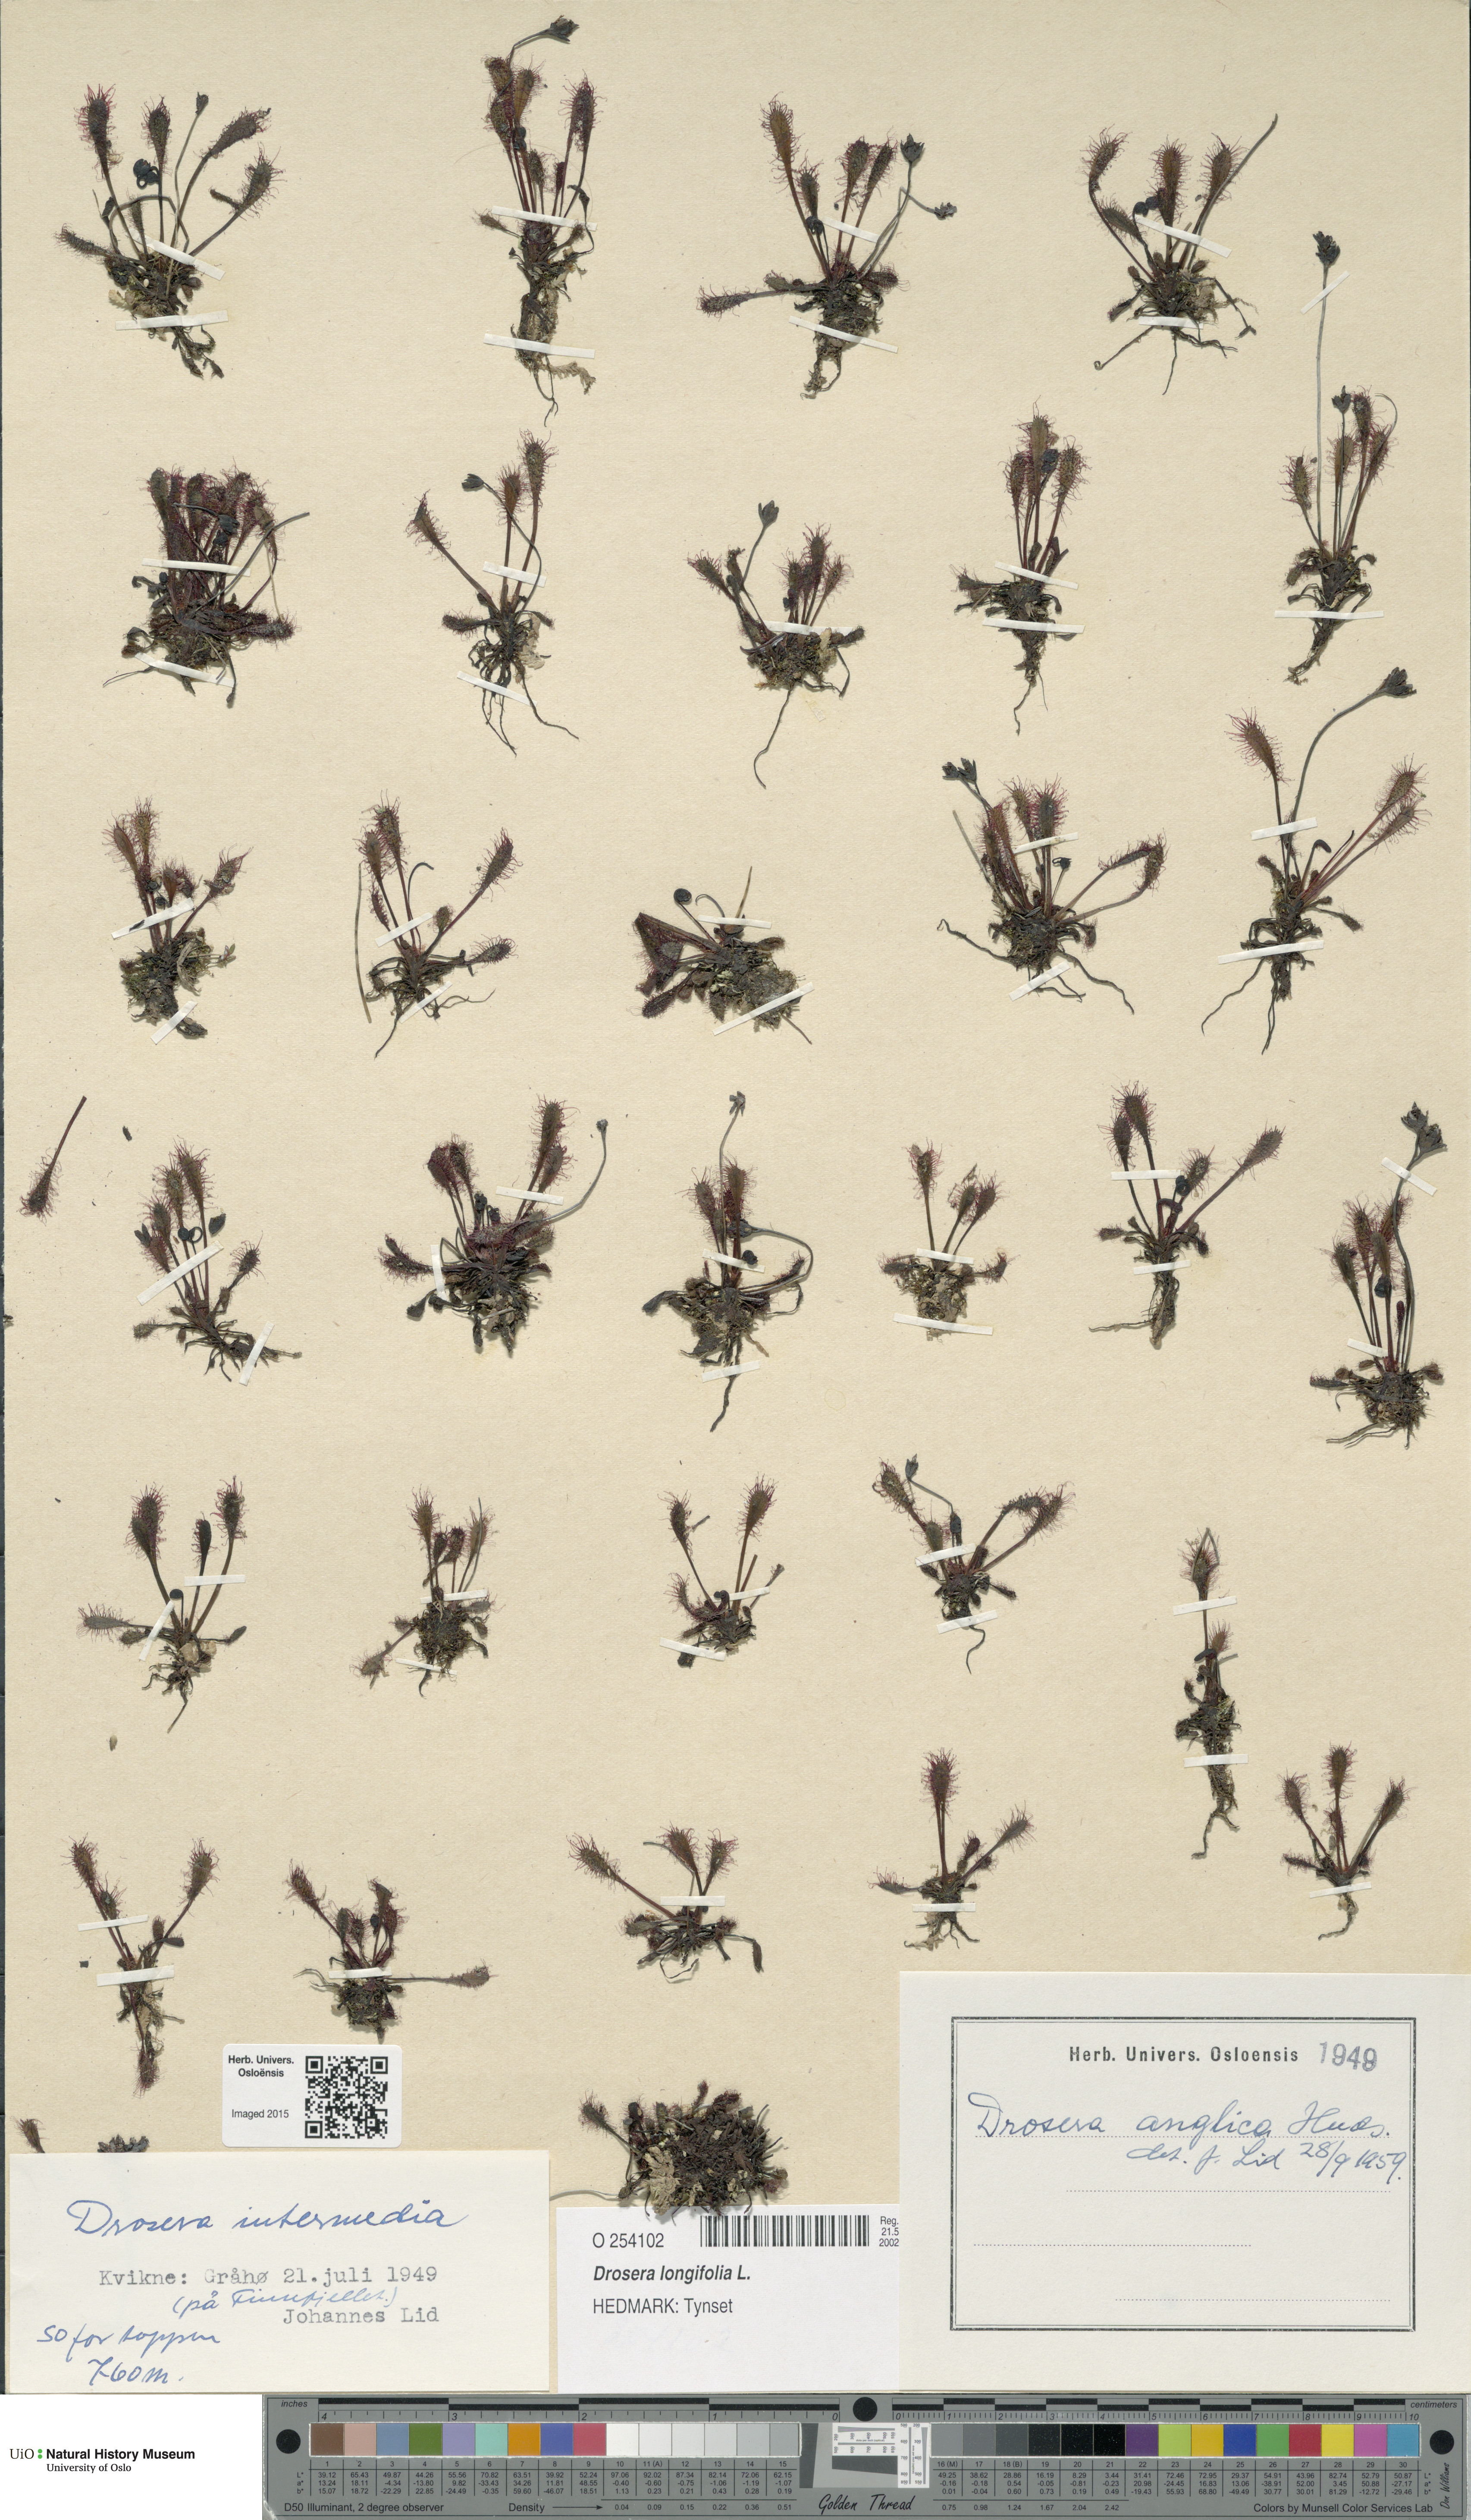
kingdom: Plantae
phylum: Tracheophyta
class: Magnoliopsida
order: Caryophyllales
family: Droseraceae
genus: Drosera
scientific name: Drosera anglica
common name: Great sundew
